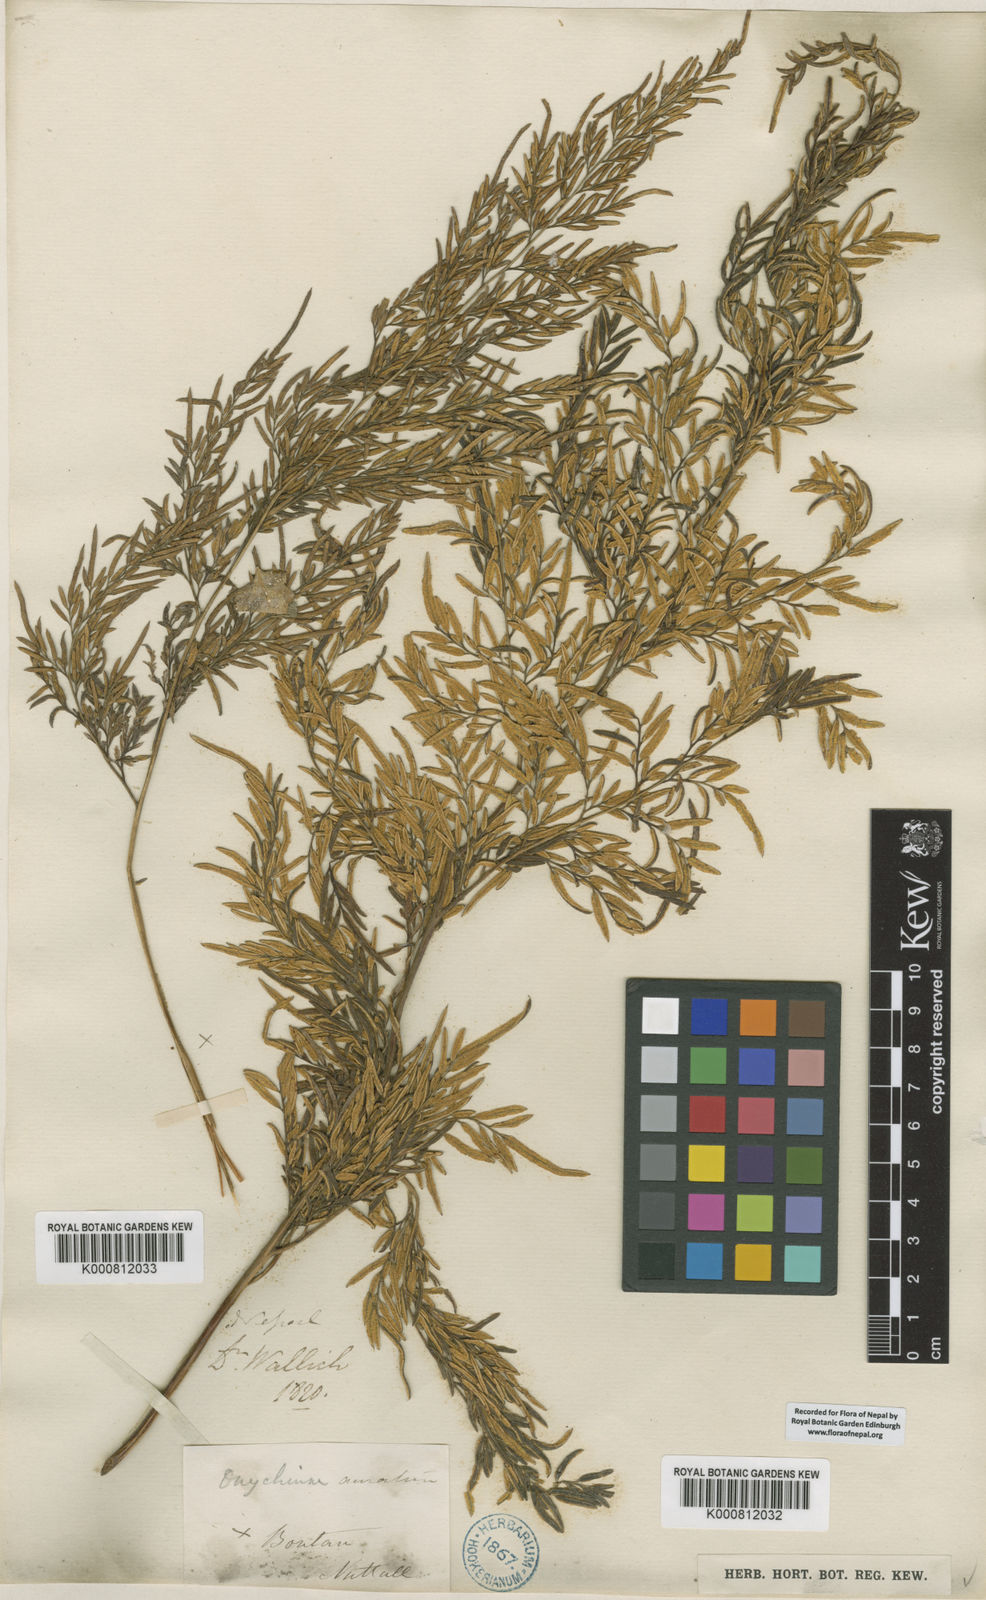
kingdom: Plantae
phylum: Tracheophyta
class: Polypodiopsida
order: Polypodiales
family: Pteridaceae
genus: Onychium
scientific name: Onychium siliculosum
